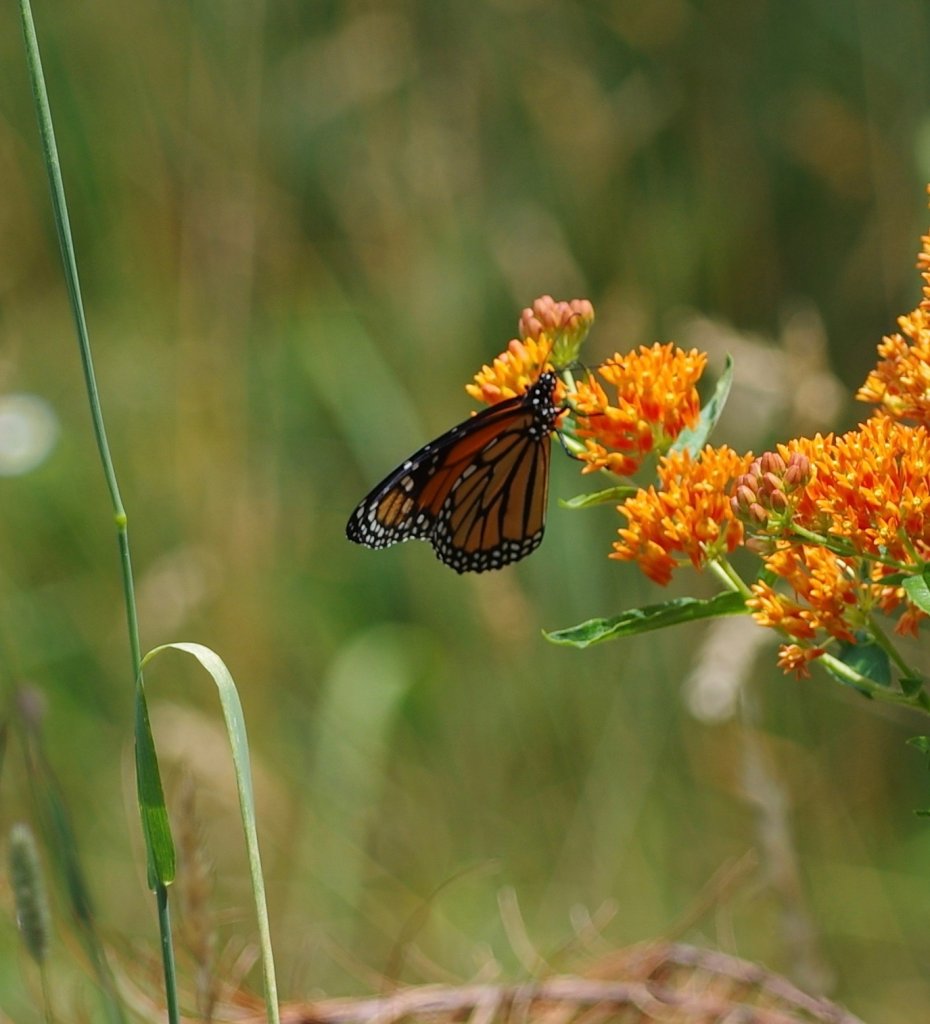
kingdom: Animalia
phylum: Arthropoda
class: Insecta
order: Lepidoptera
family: Nymphalidae
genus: Danaus
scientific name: Danaus plexippus
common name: Monarch
